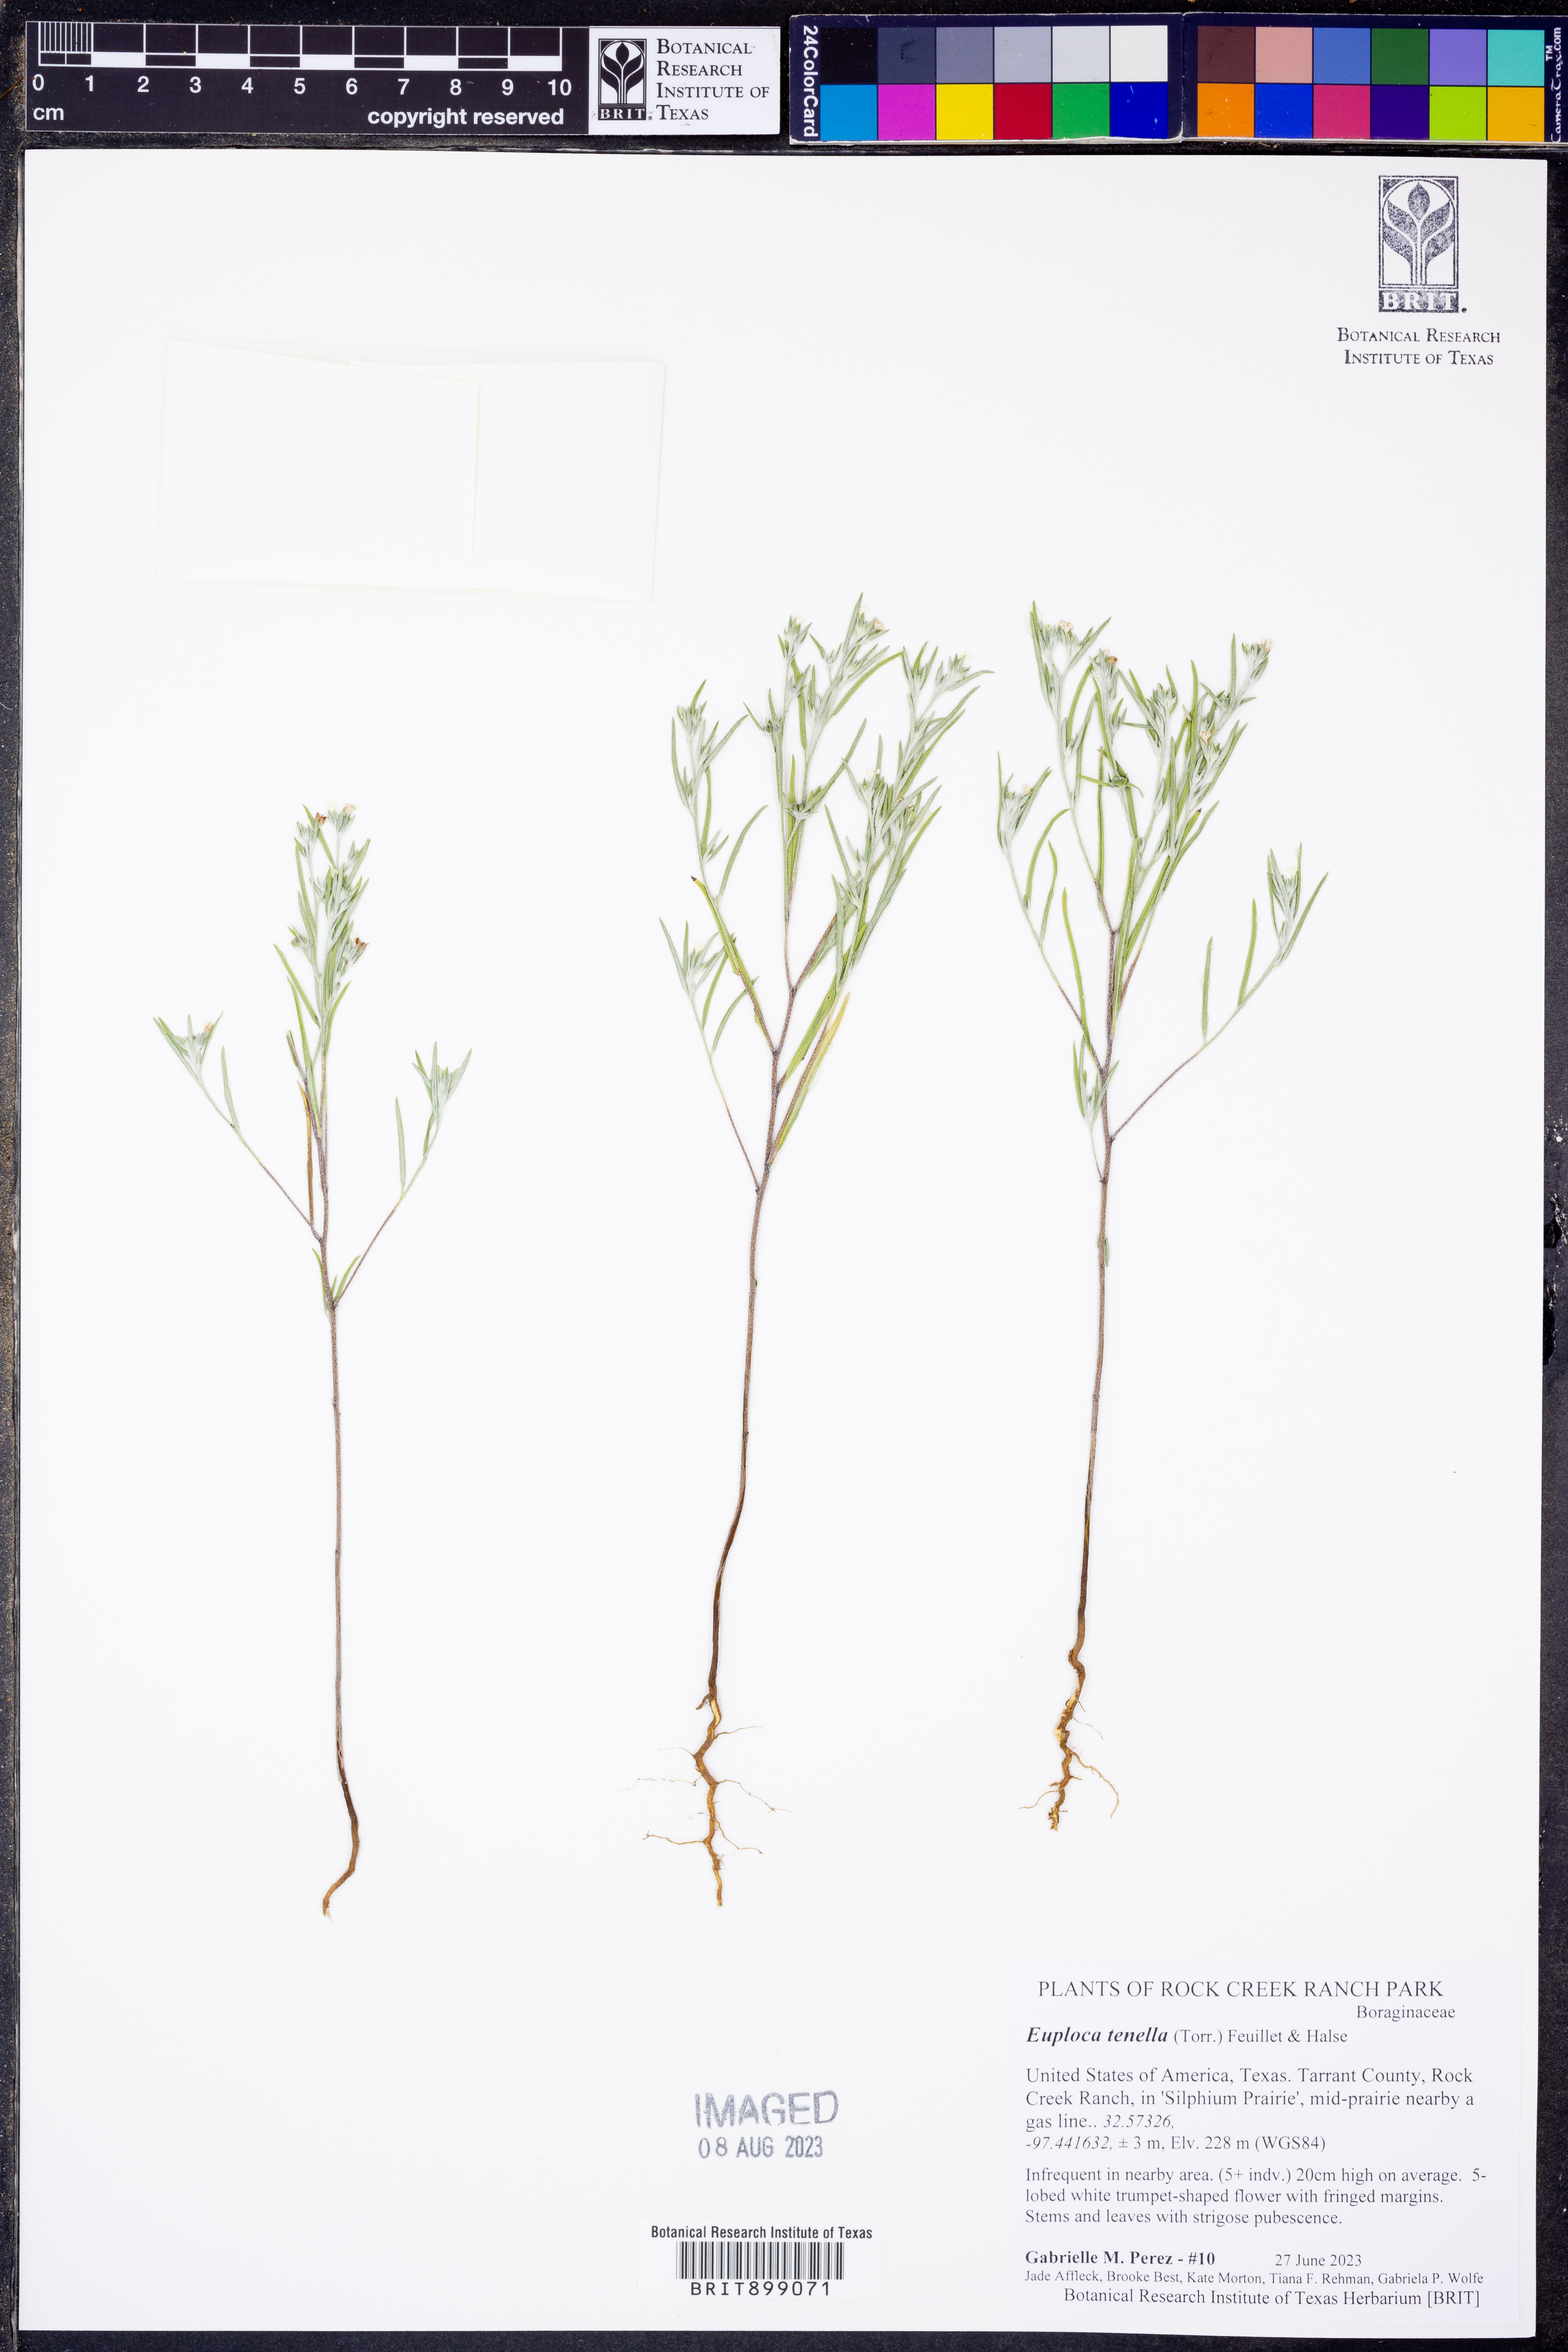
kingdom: Plantae
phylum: Tracheophyta
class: Magnoliopsida
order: Boraginales
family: Heliotropiaceae
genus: Euploca
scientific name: Euploca tenella
